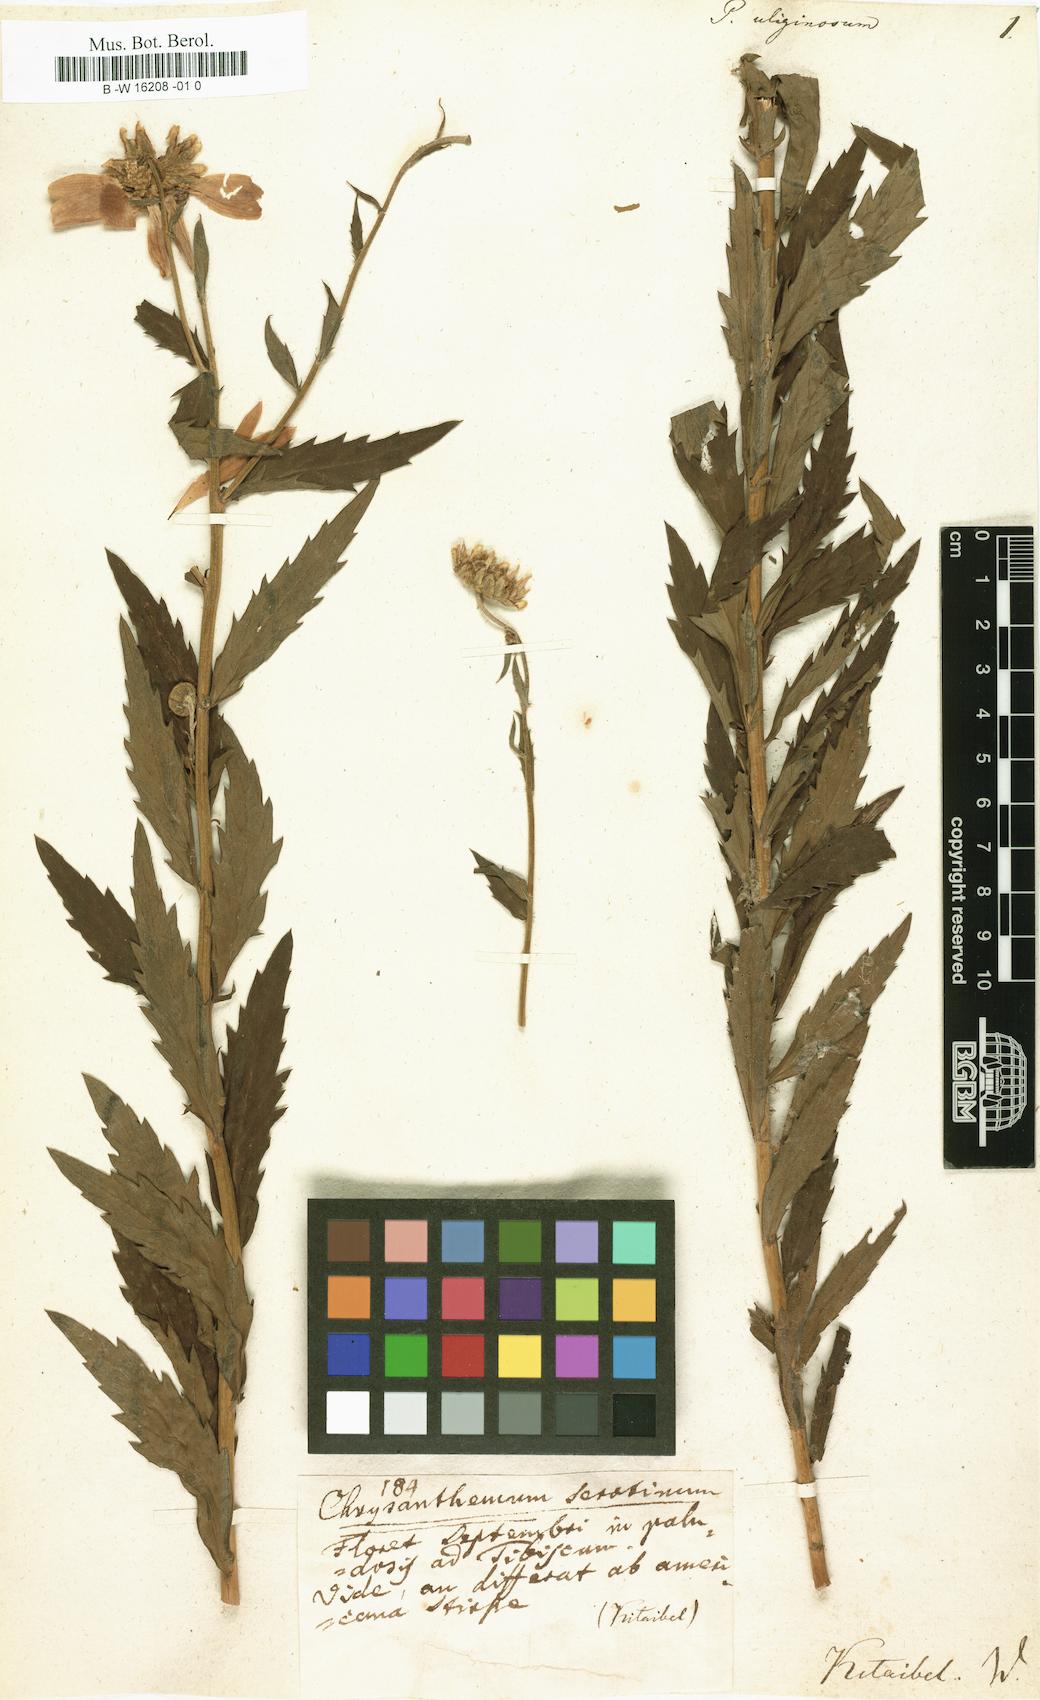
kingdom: Plantae
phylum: Tracheophyta
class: Magnoliopsida
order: Asterales
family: Asteraceae
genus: Leucanthemella
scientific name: Leucanthemella serotina
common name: Autumn oxeye
